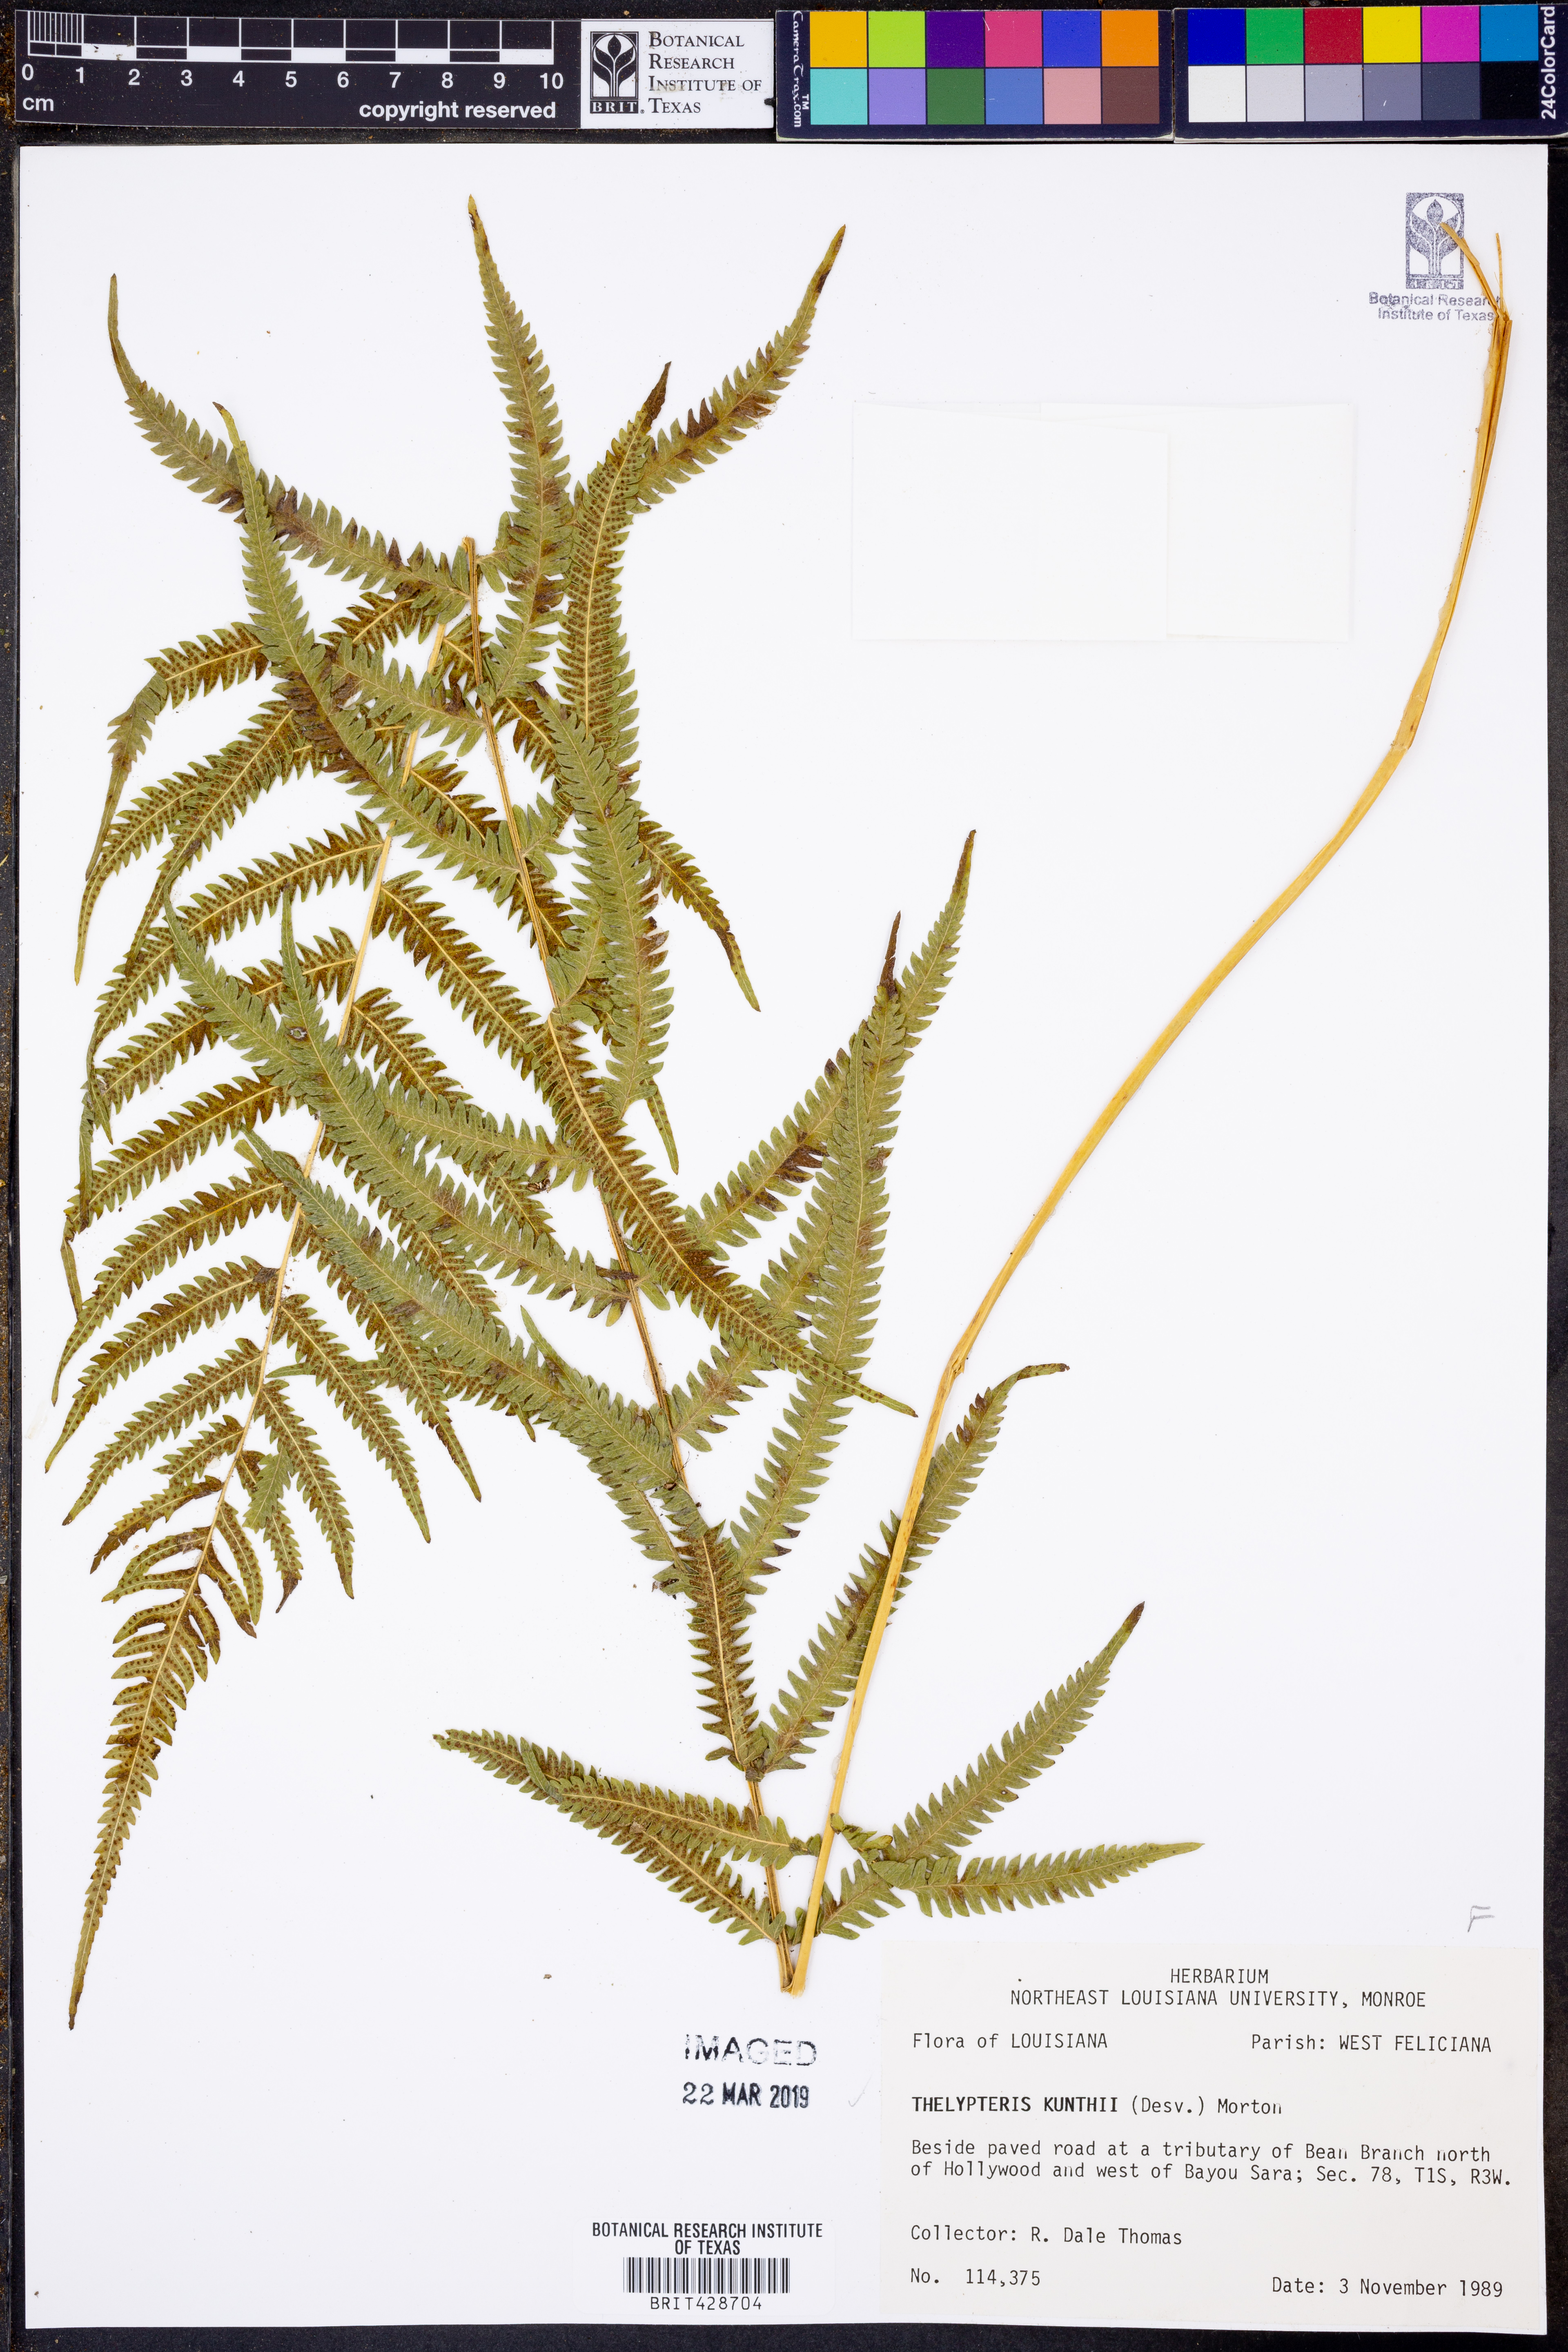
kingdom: Plantae
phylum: Tracheophyta
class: Polypodiopsida
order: Polypodiales
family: Thelypteridaceae
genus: Pelazoneuron
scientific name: Pelazoneuron kunthii
